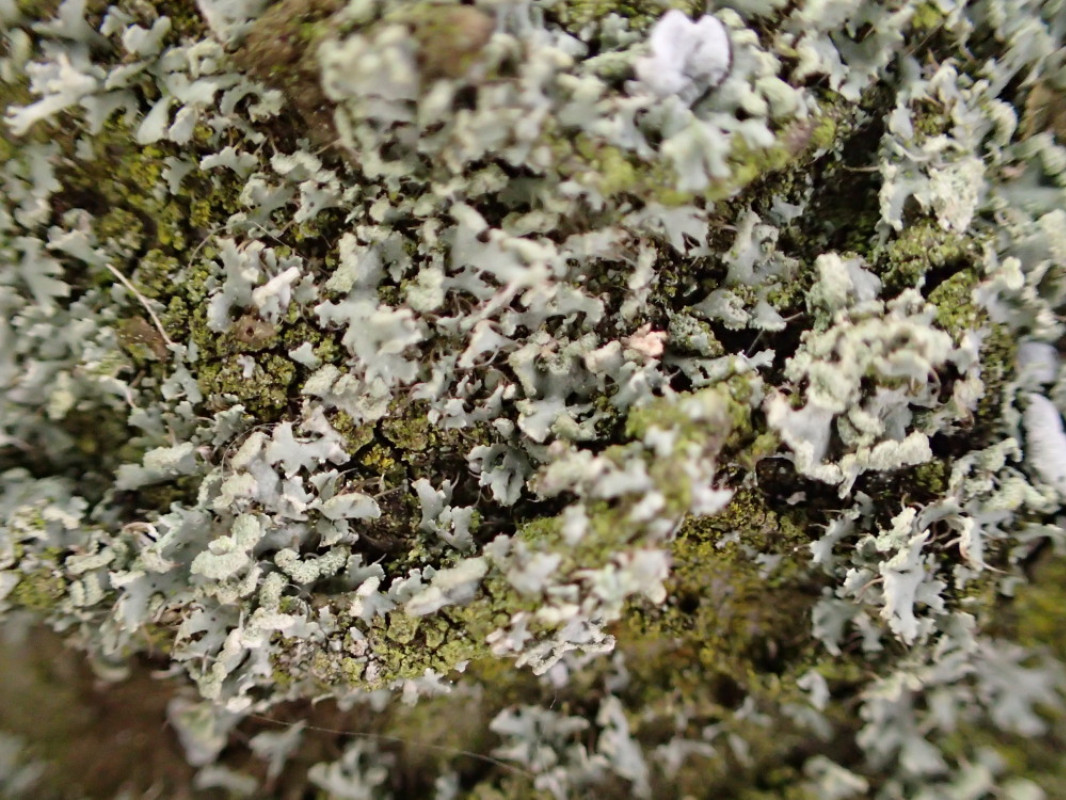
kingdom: Fungi
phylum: Ascomycota
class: Lecanoromycetes
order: Caliciales
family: Physciaceae
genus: Physcia
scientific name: Physcia tenella
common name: spæd rosetlav
